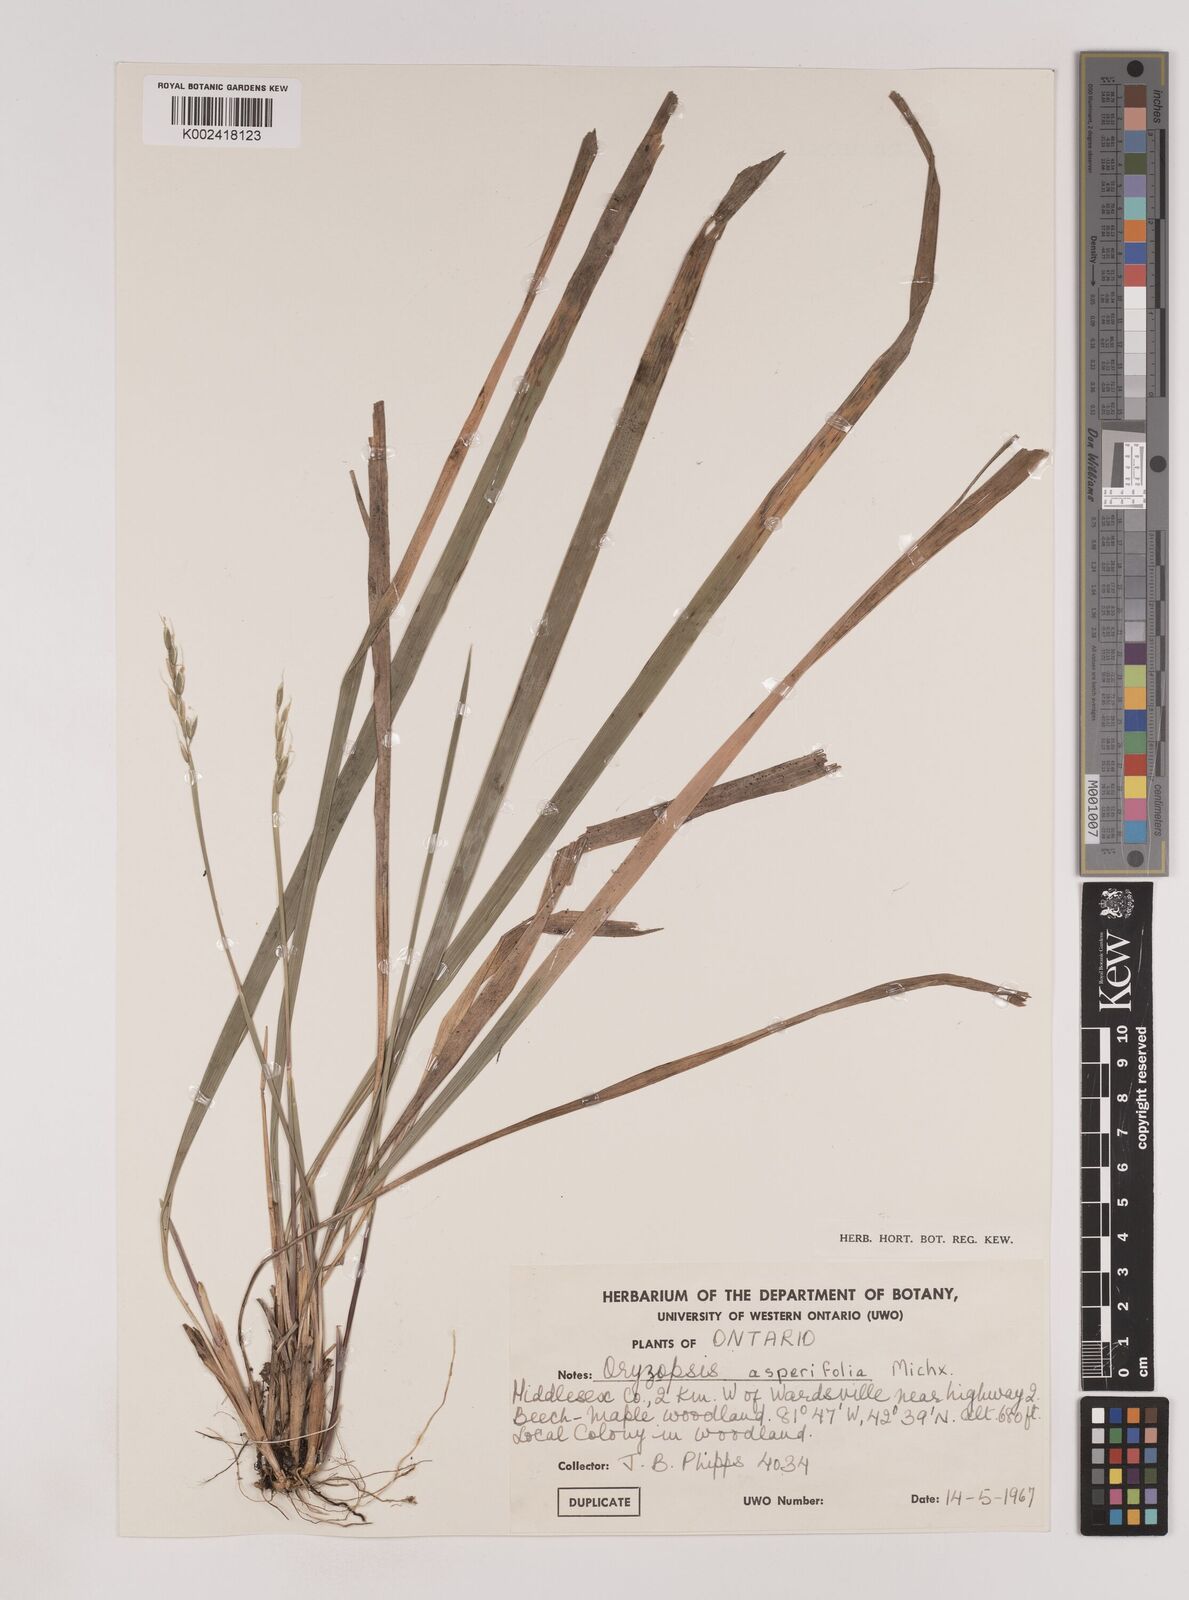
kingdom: Plantae
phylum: Tracheophyta
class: Liliopsida
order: Poales
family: Poaceae
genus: Oryzopsis
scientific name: Oryzopsis asperifolia
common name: Rough-leaved mountain rice
